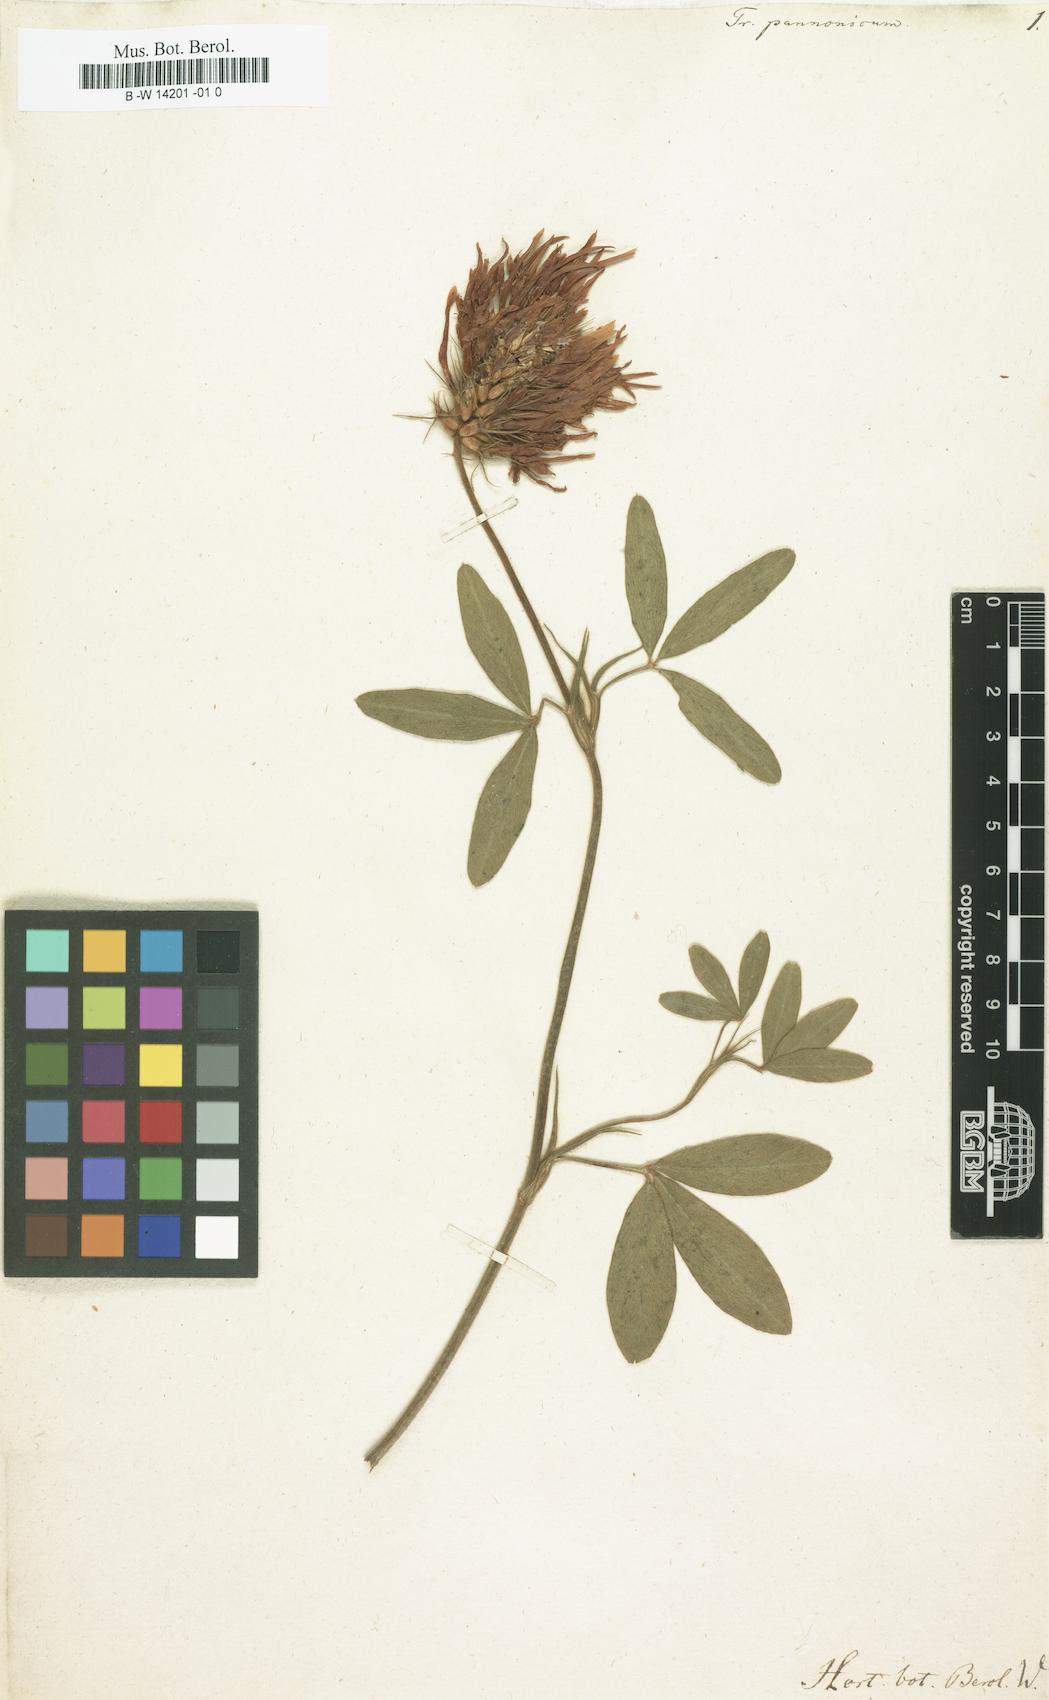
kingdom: Plantae
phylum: Tracheophyta
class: Magnoliopsida
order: Fabales
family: Fabaceae
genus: Trifolium
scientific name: Trifolium pannonicum
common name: Hungarian clover
